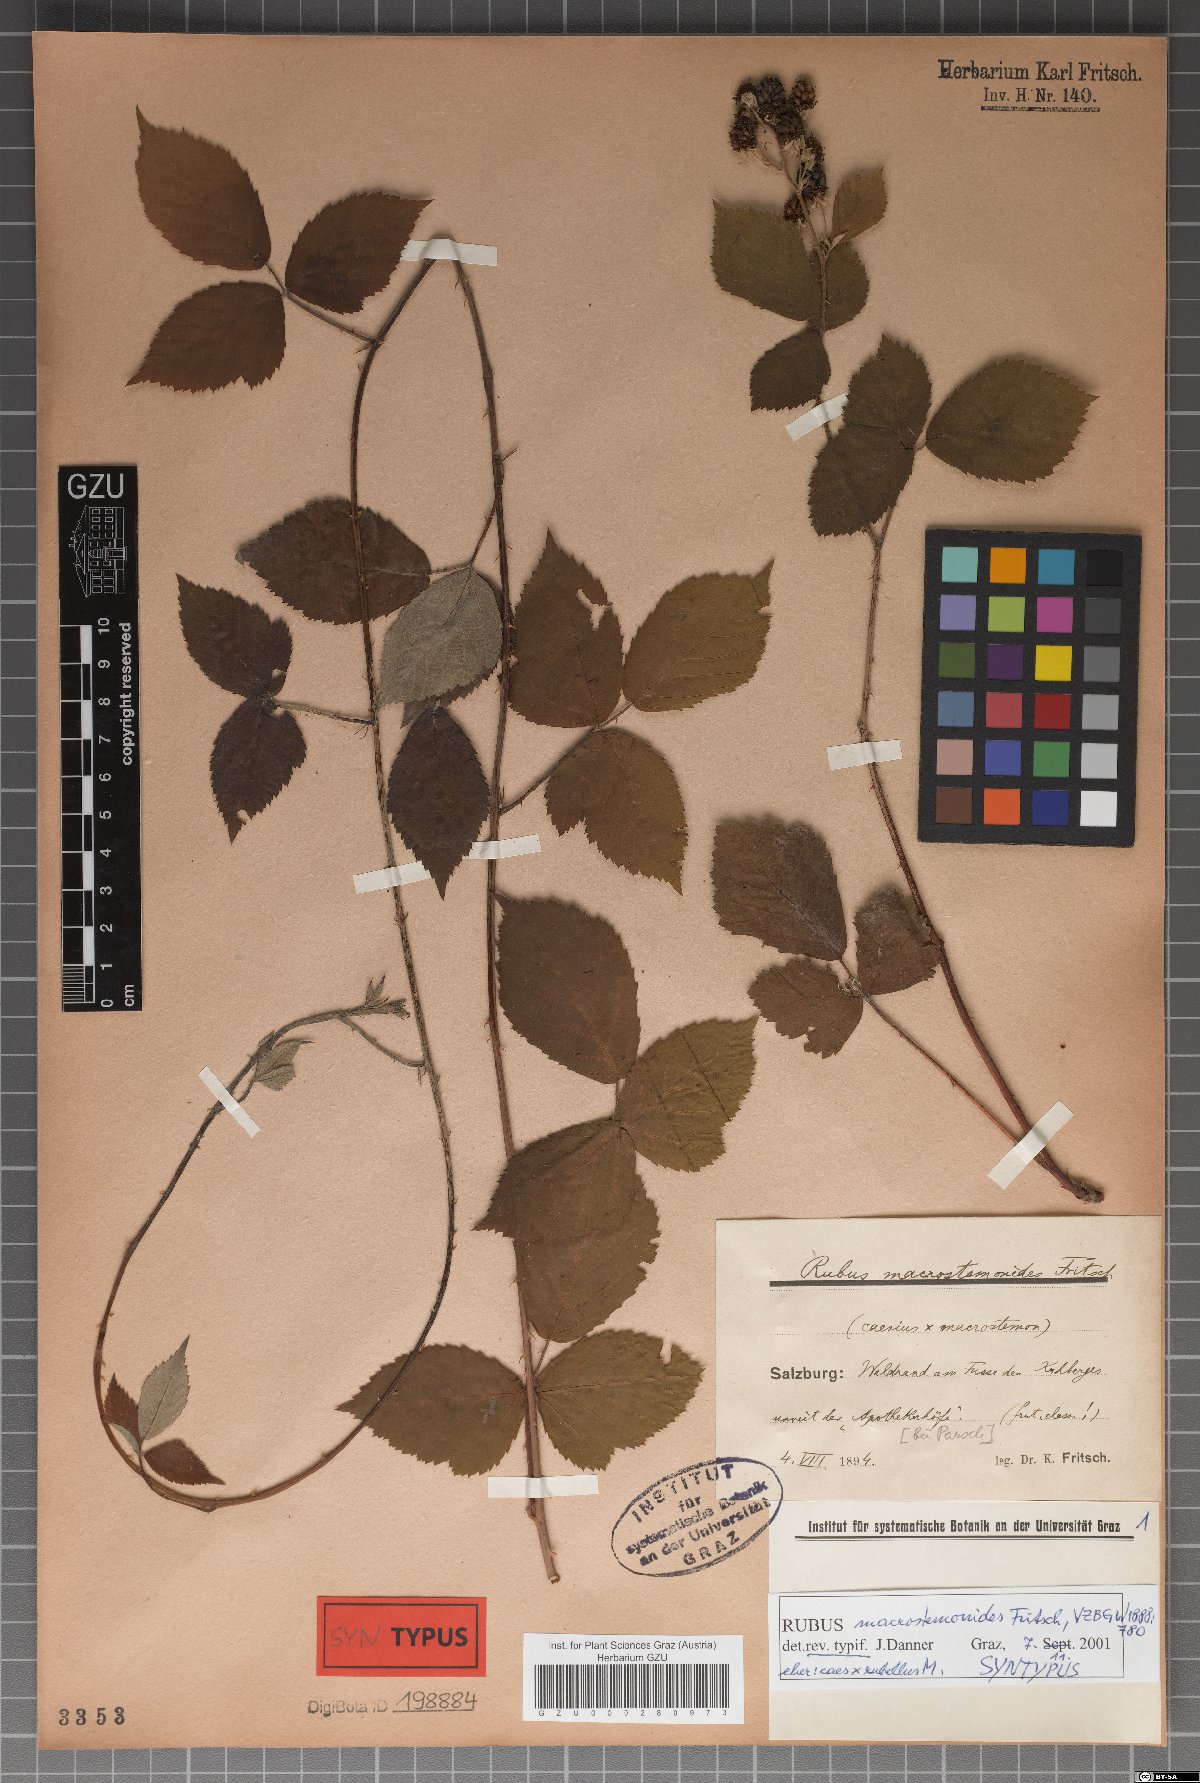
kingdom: Plantae
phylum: Tracheophyta
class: Magnoliopsida
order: Rosales
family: Rosaceae
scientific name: Rosaceae
